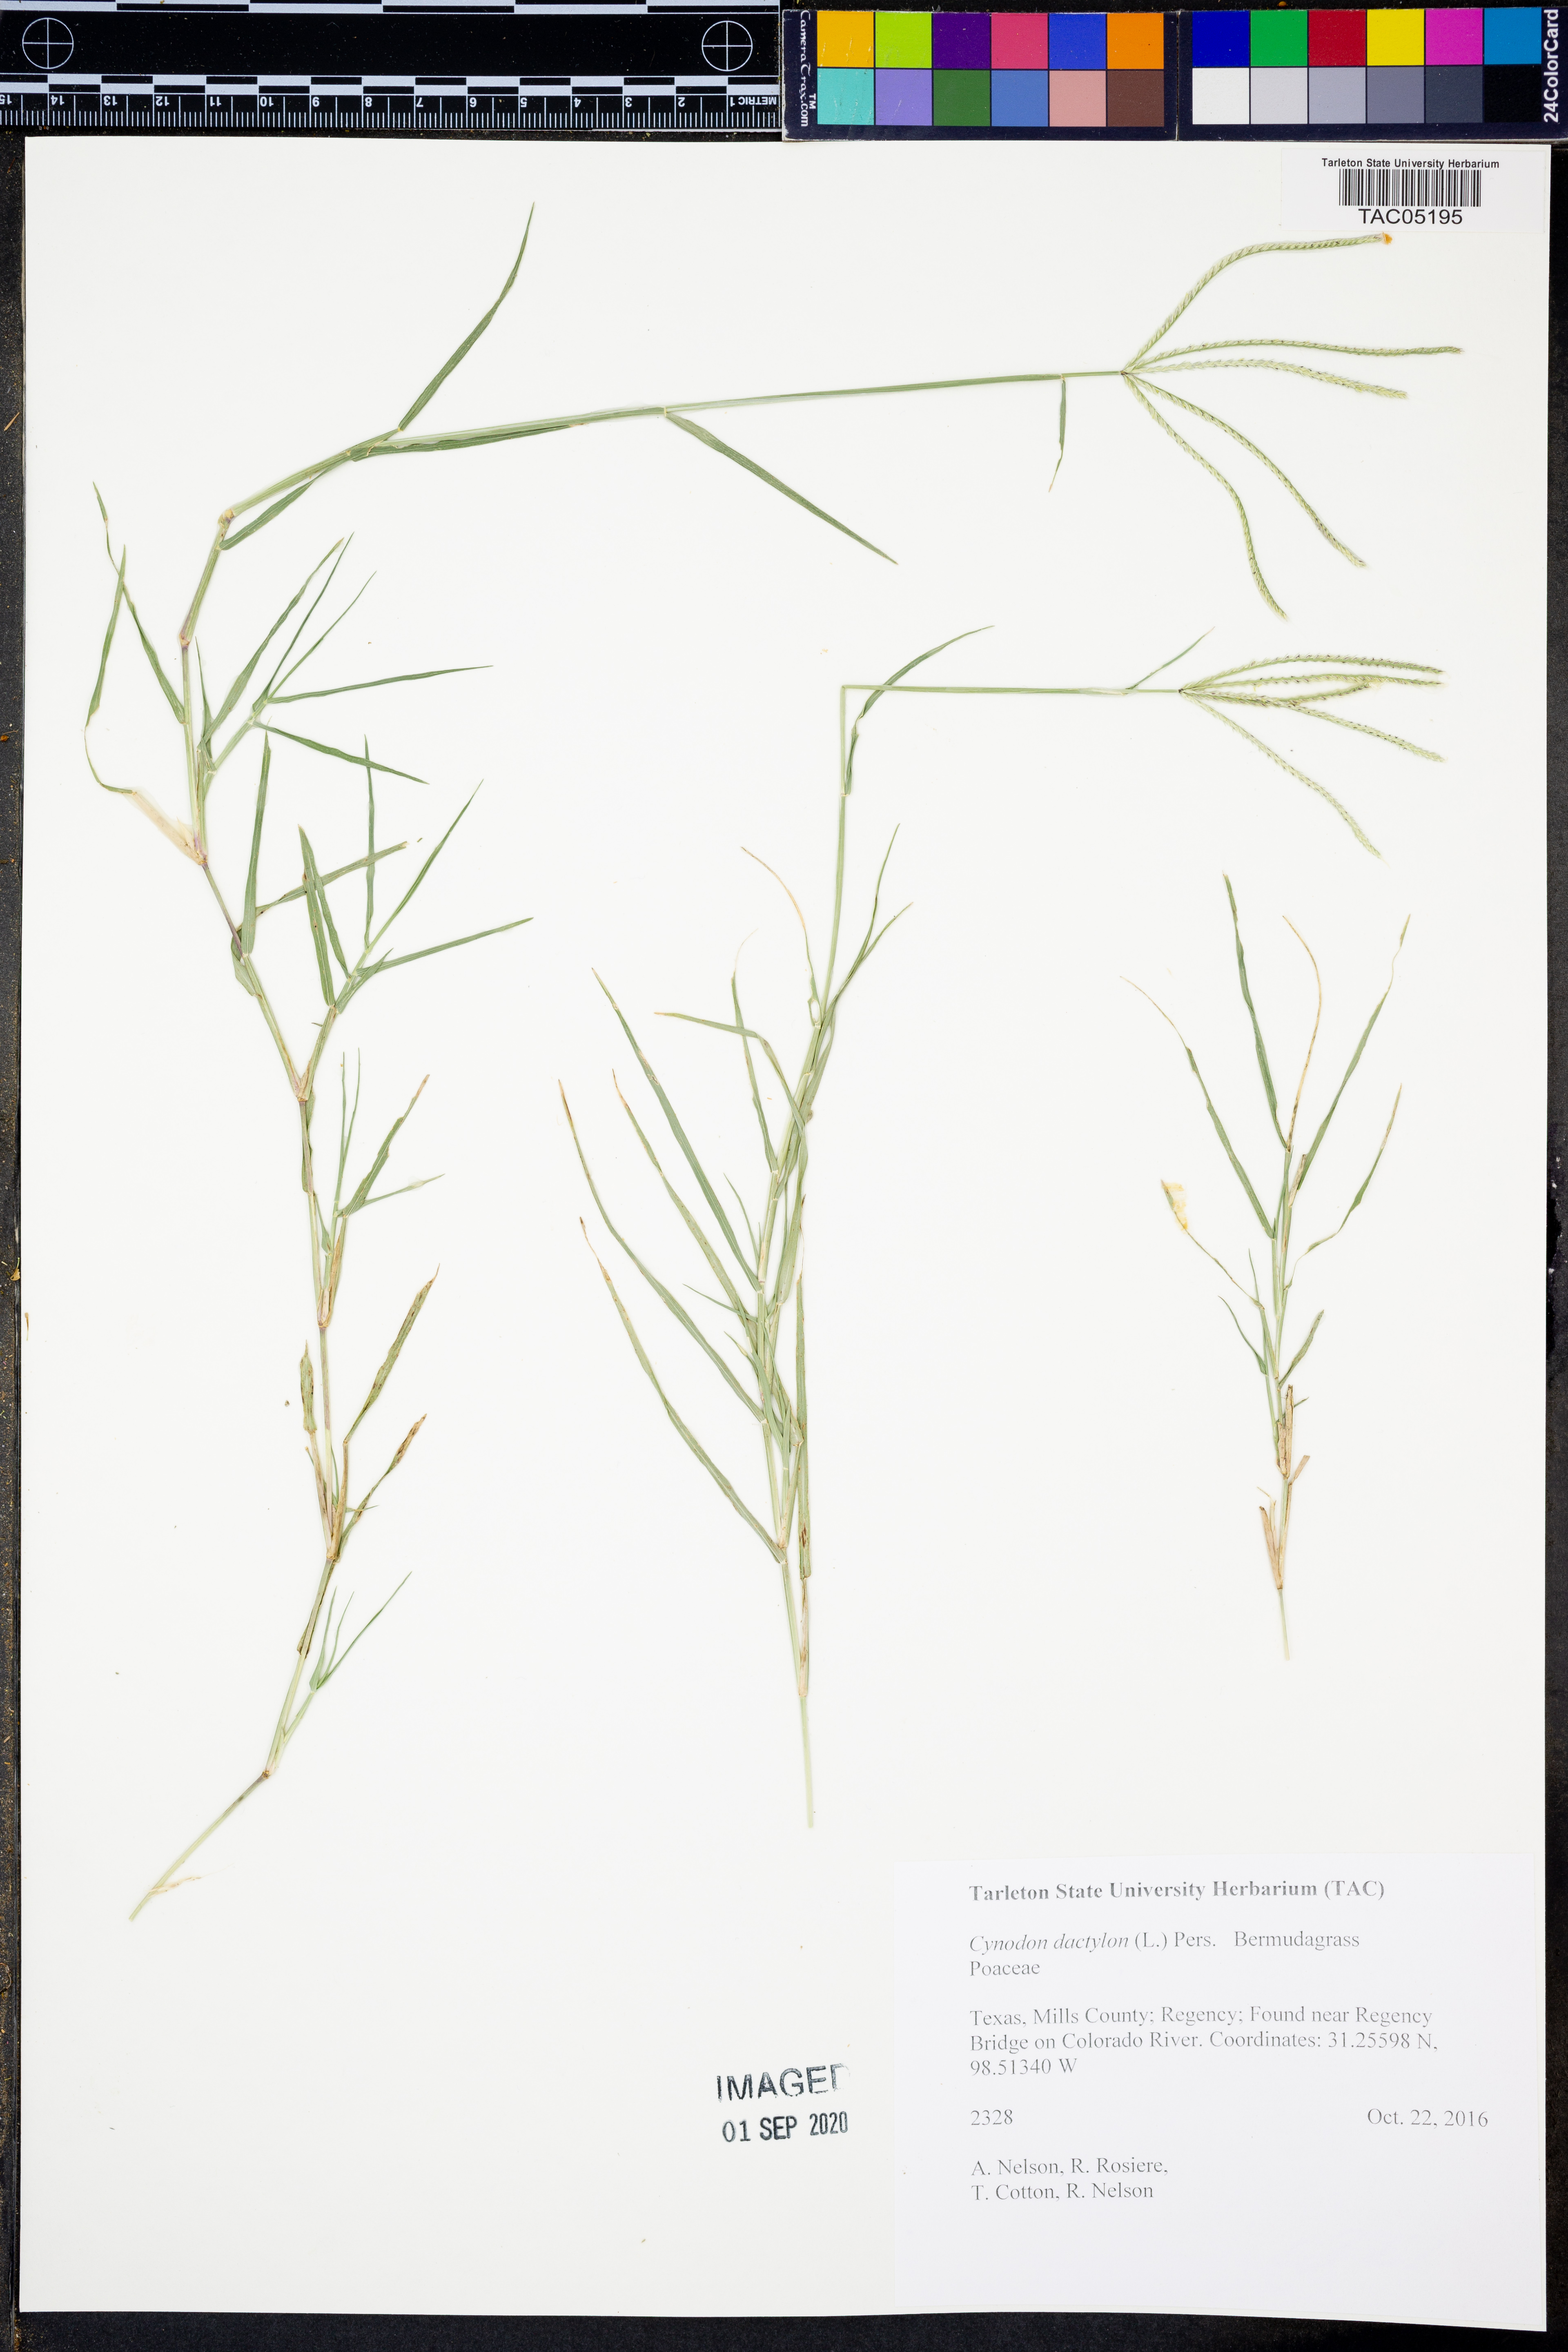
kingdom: Plantae
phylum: Tracheophyta
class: Liliopsida
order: Poales
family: Poaceae
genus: Cynodon
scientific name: Cynodon dactylon
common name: Bermuda grass
